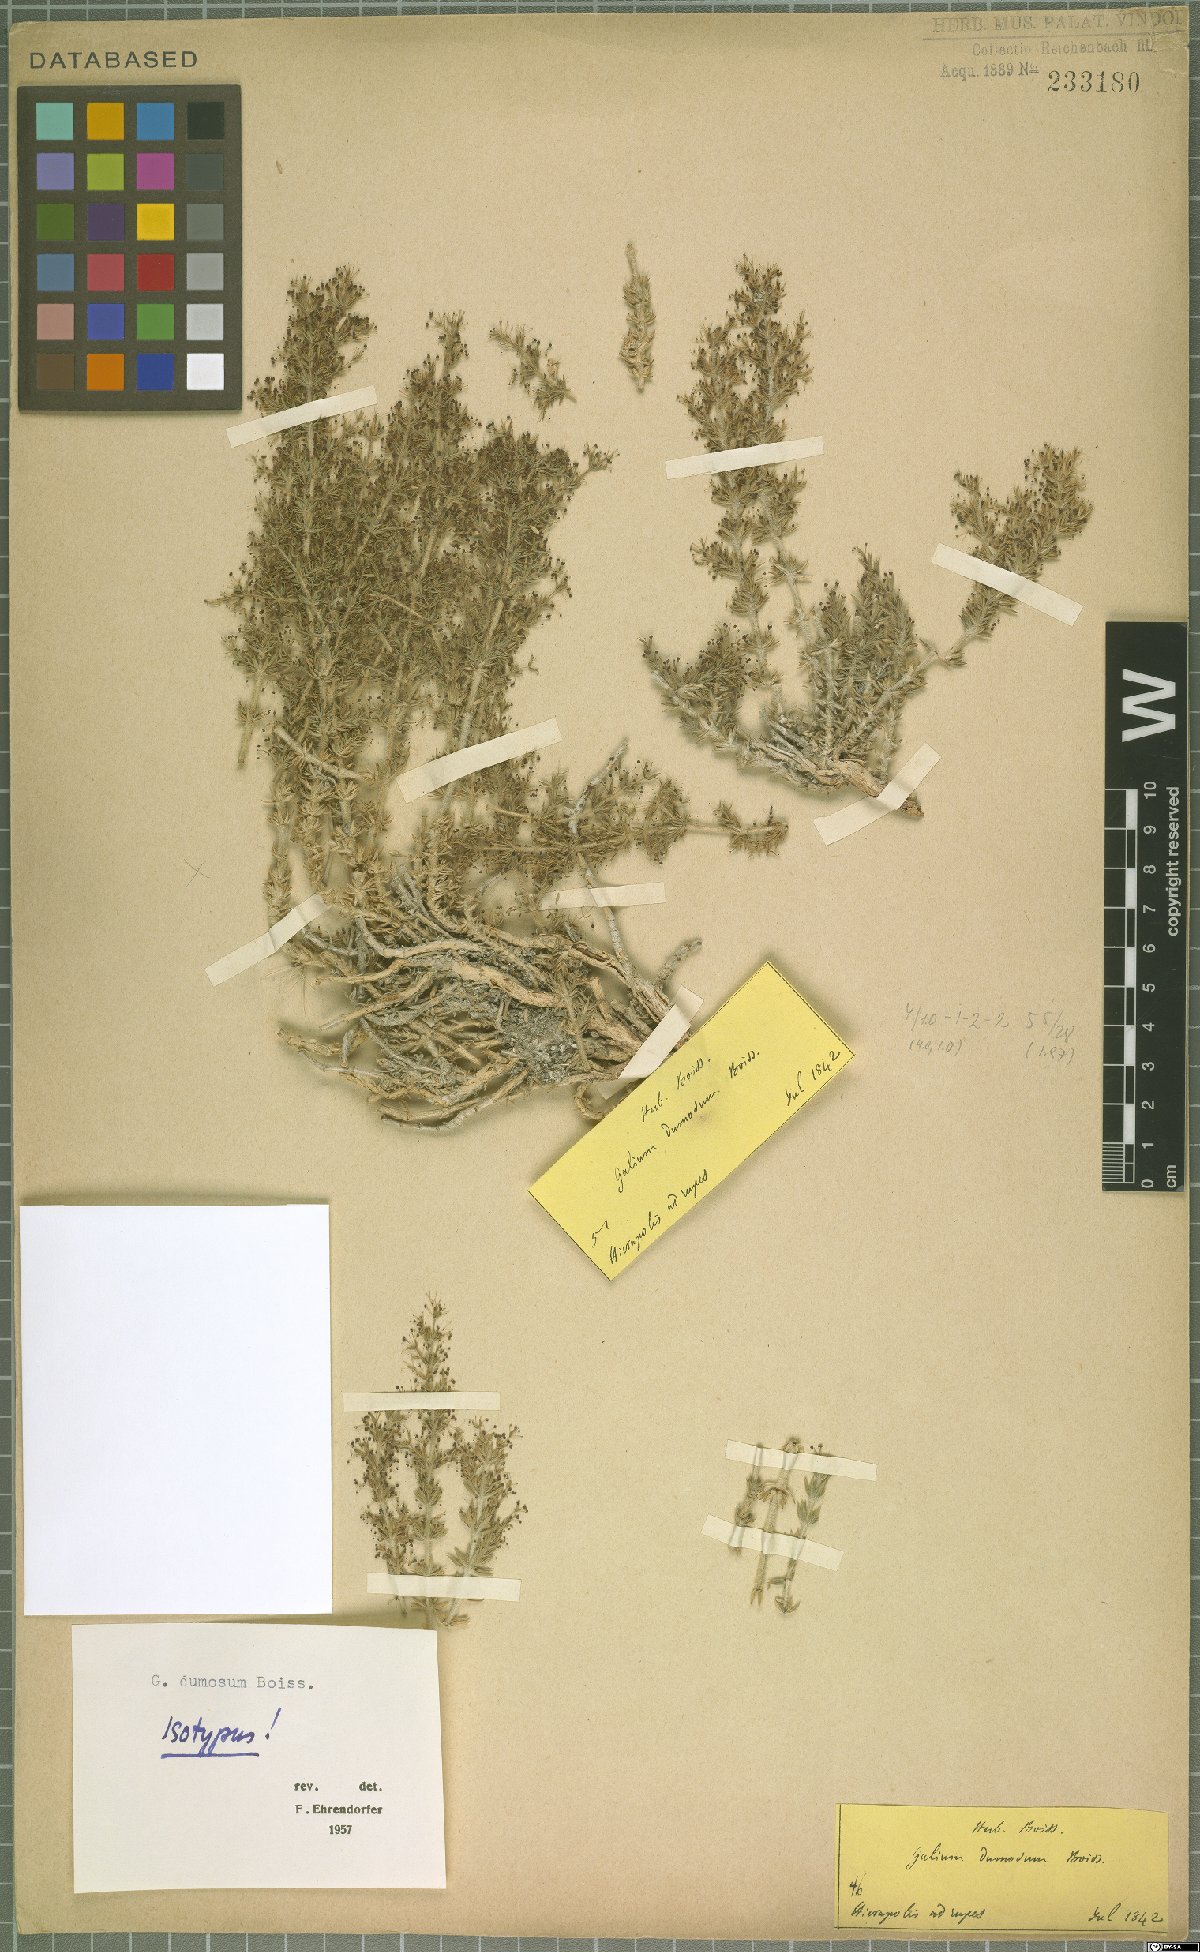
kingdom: Plantae
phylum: Tracheophyta
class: Magnoliopsida
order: Gentianales
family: Rubiaceae
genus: Galium
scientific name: Galium dumosum
